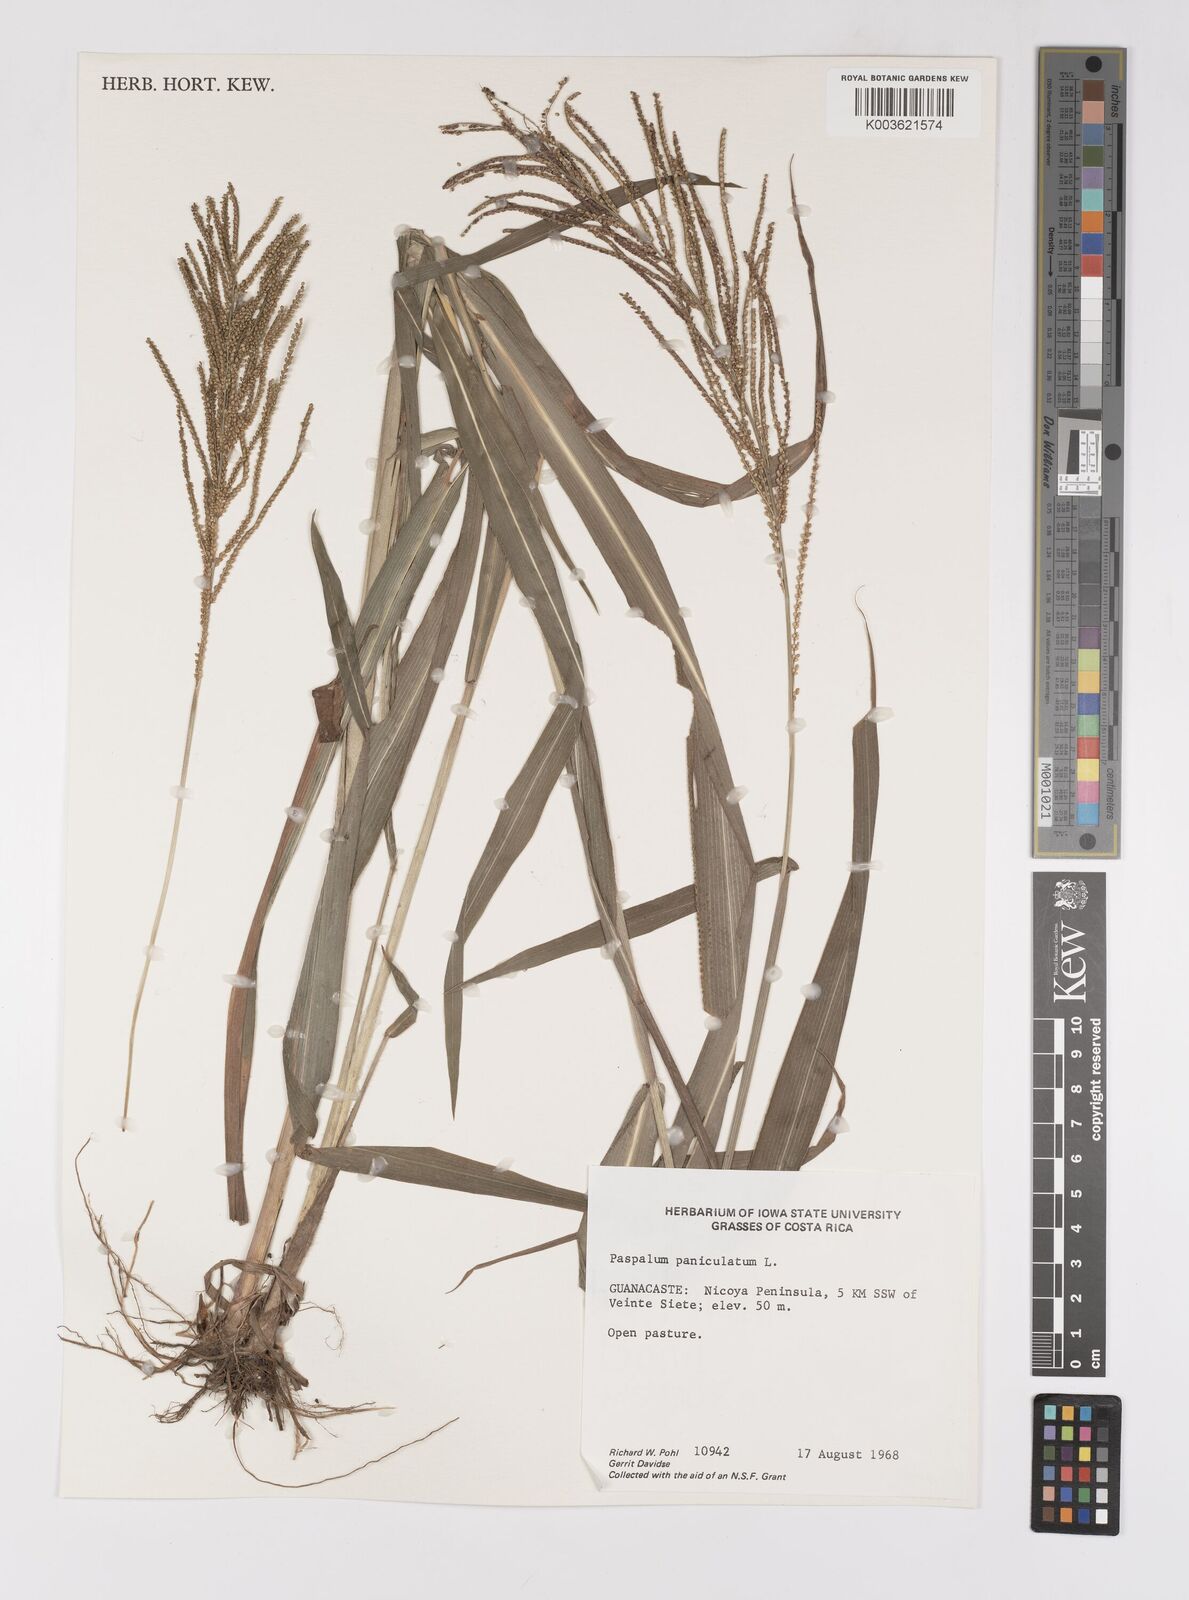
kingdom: Plantae
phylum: Tracheophyta
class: Liliopsida
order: Poales
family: Poaceae
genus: Paspalum
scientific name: Paspalum paniculatum
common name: Arrocillo
